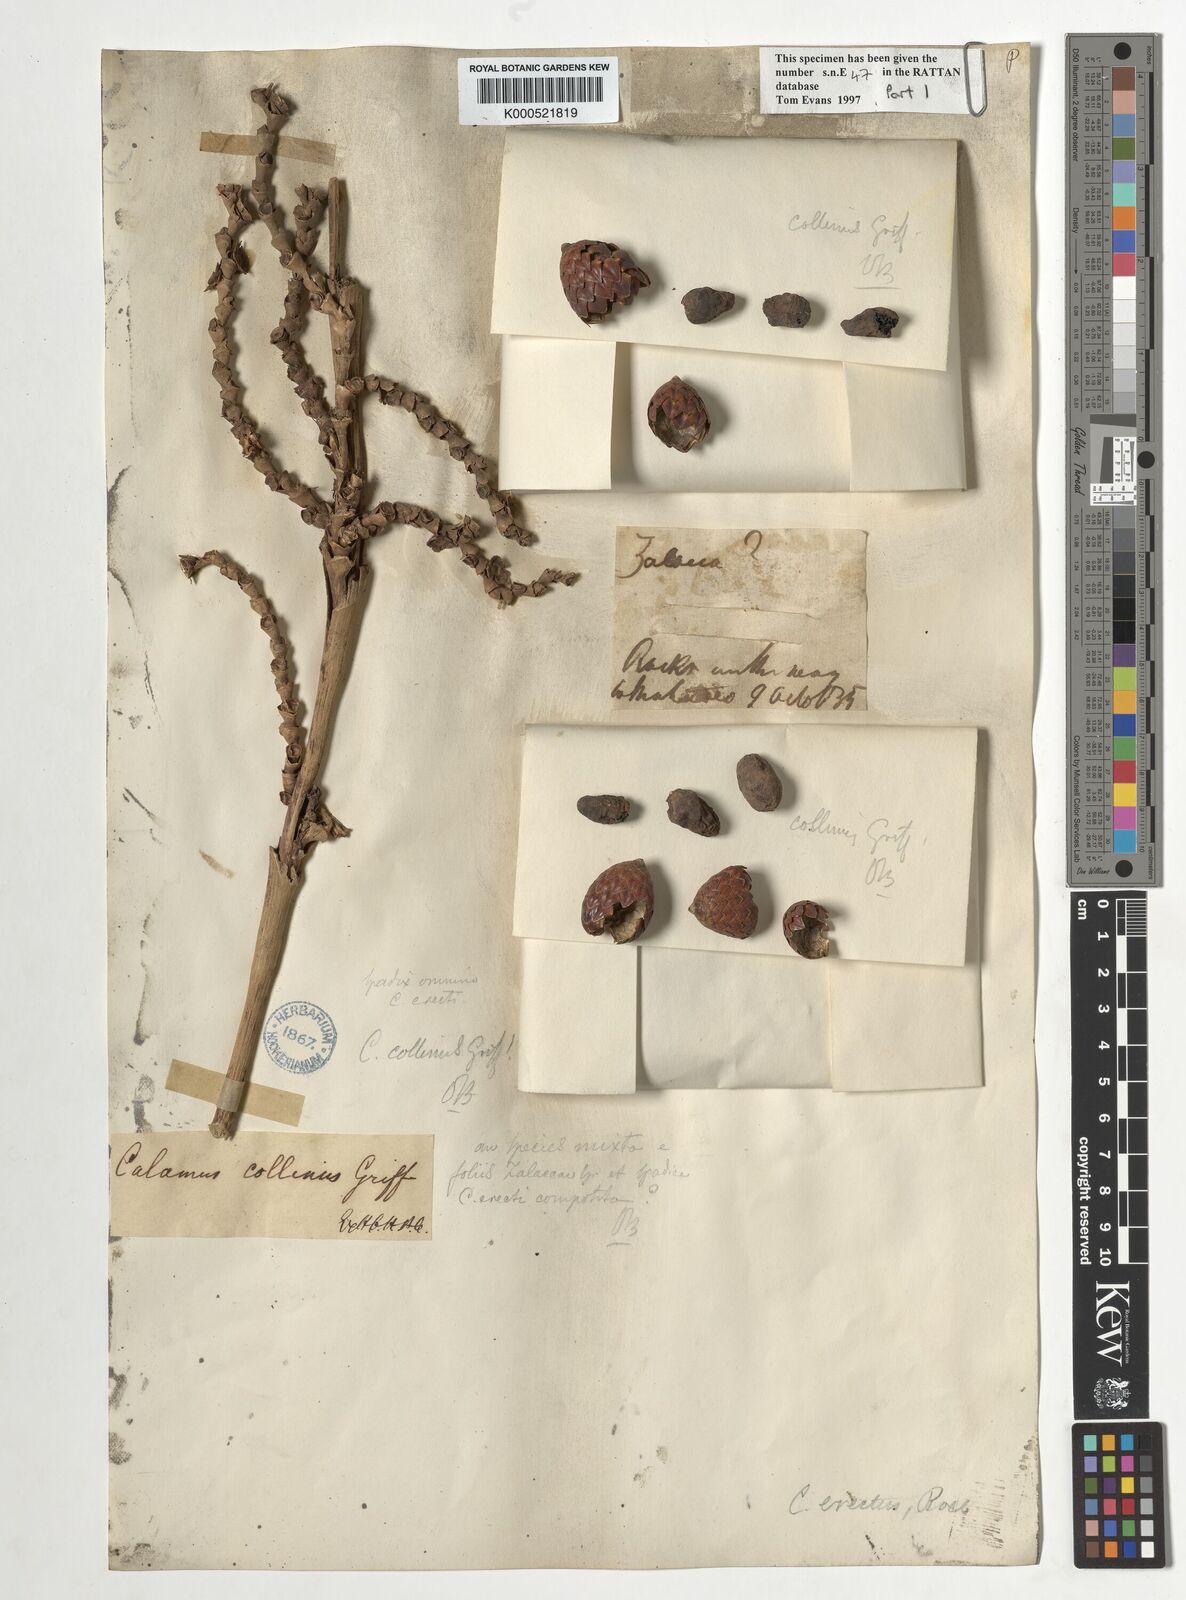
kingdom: Plantae
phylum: Tracheophyta
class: Liliopsida
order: Arecales
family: Arecaceae
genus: Calamus
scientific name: Calamus erectus
